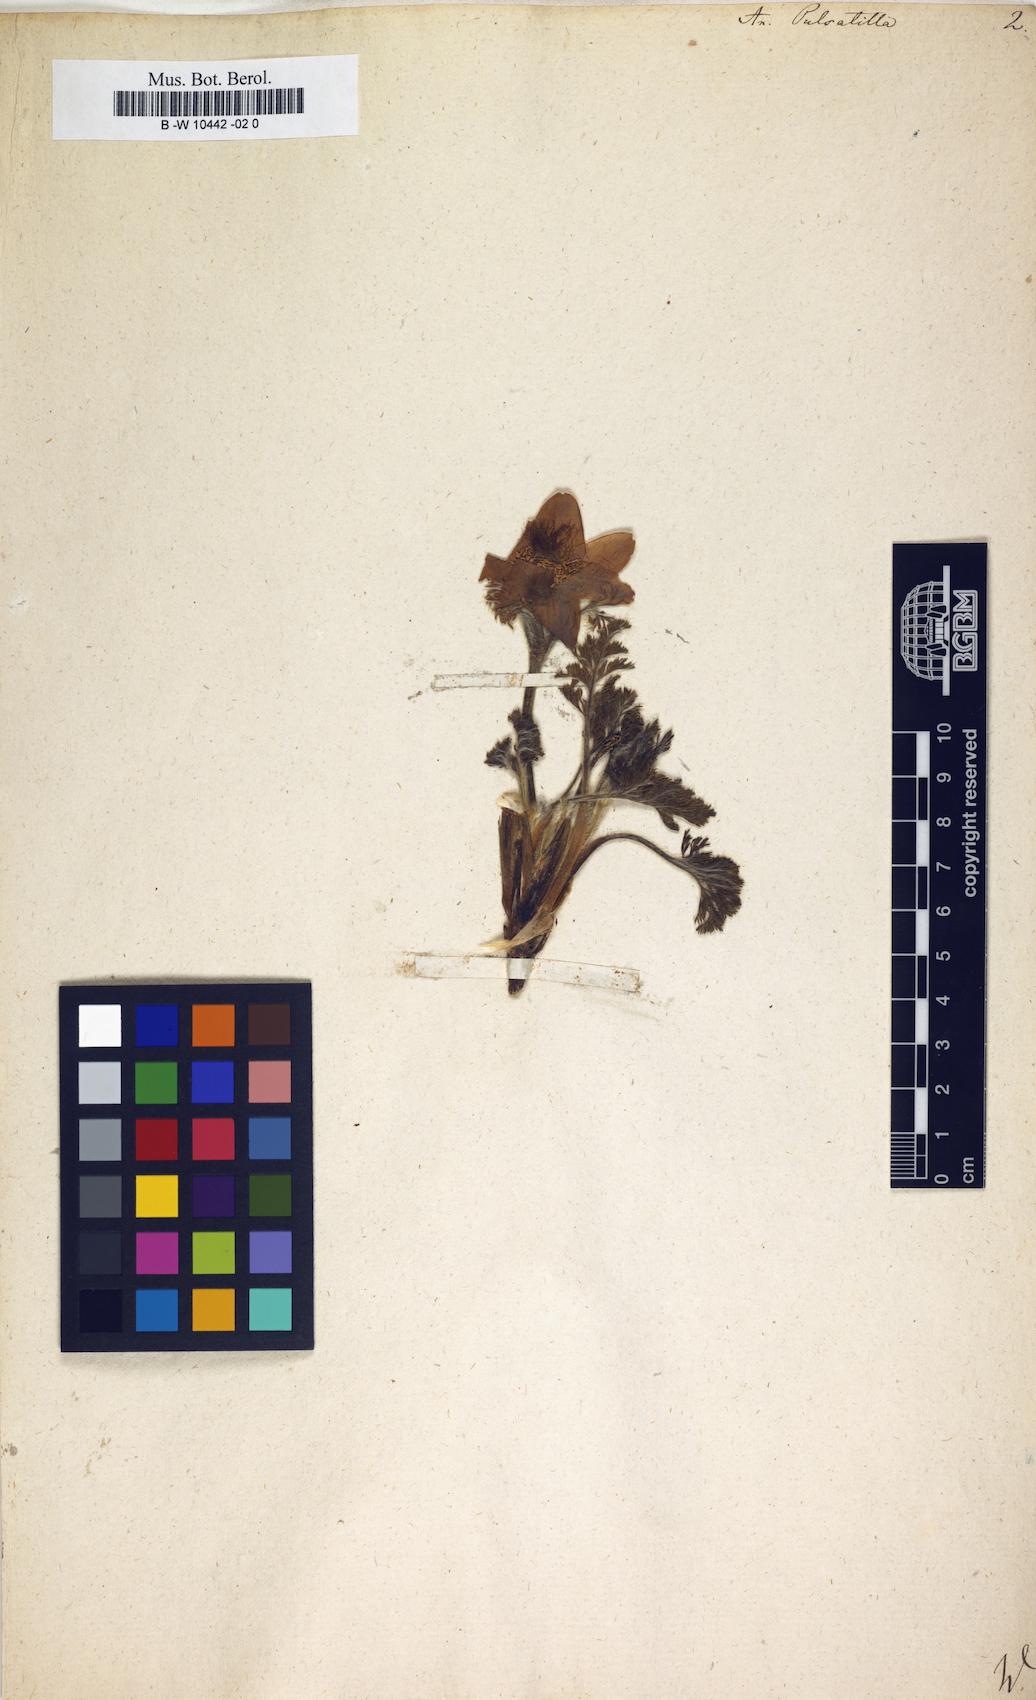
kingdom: Plantae
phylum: Tracheophyta
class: Magnoliopsida
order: Ranunculales
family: Ranunculaceae
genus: Pulsatilla
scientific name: Pulsatilla vulgaris
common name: Pasqueflower
